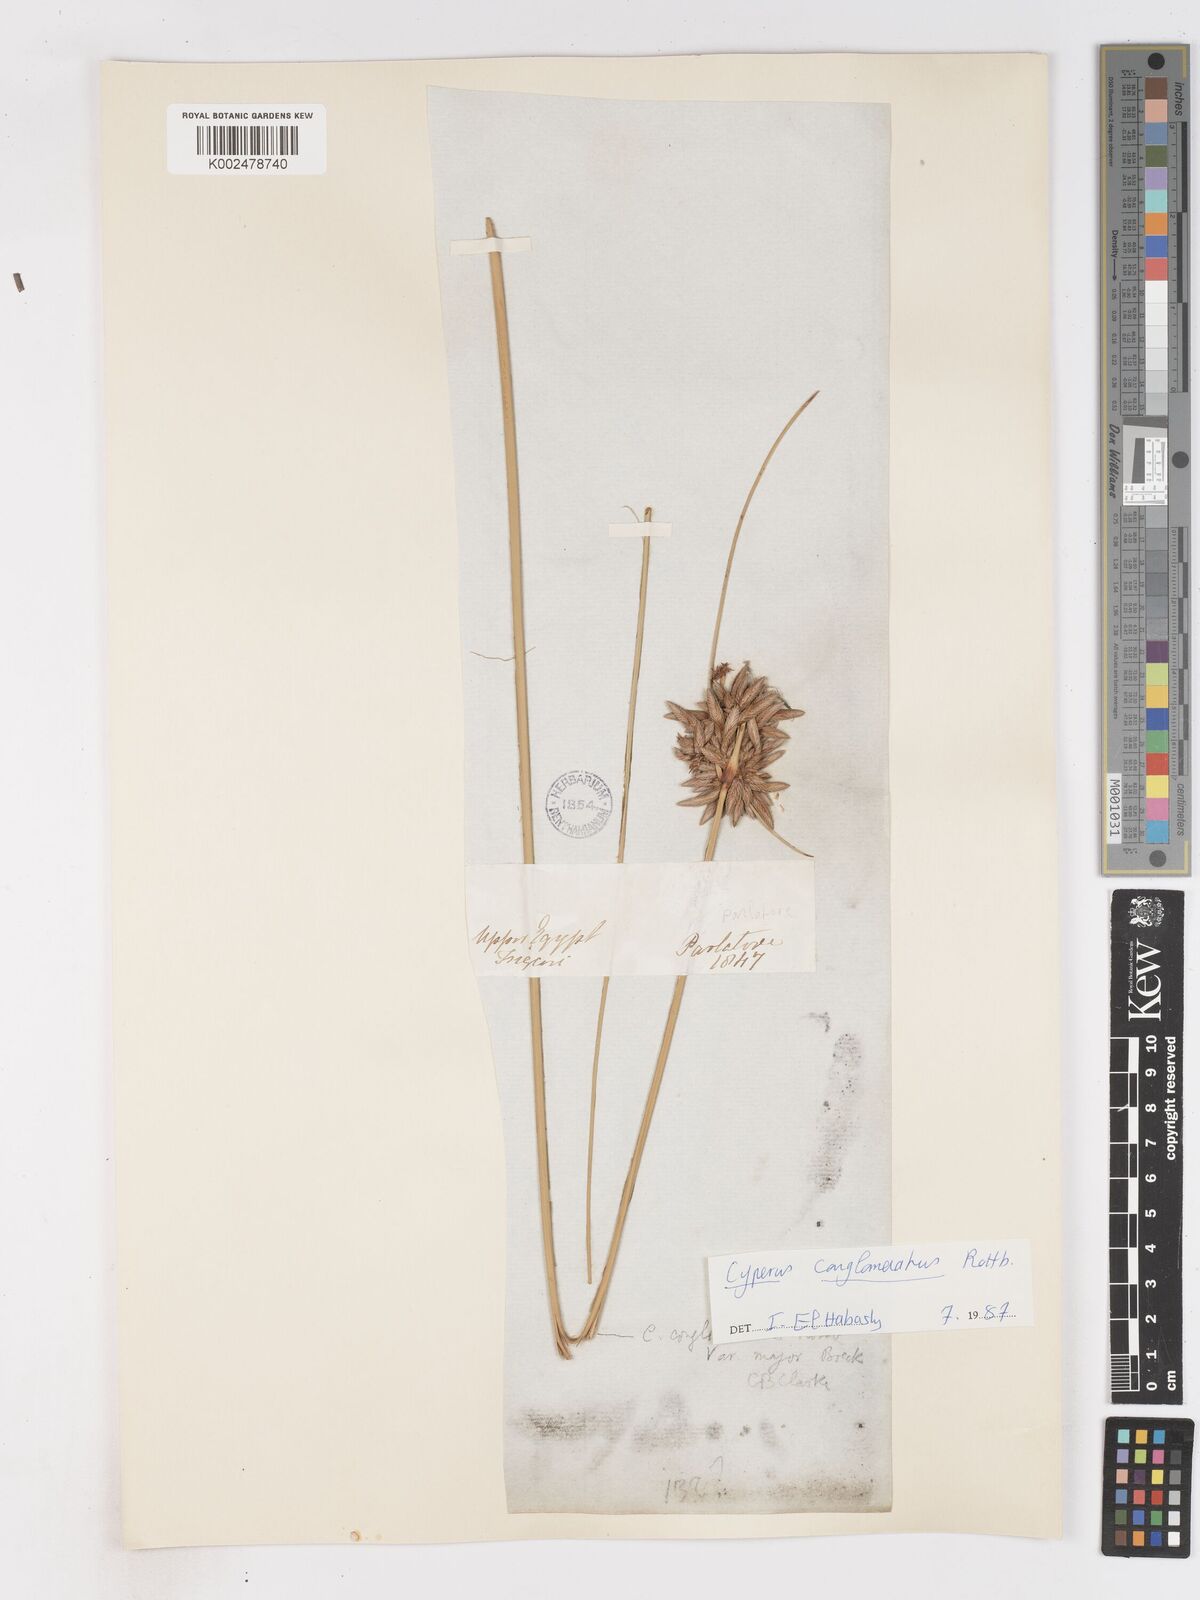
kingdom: Plantae
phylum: Tracheophyta
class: Liliopsida
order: Poales
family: Cyperaceae
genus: Cyperus
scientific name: Cyperus
